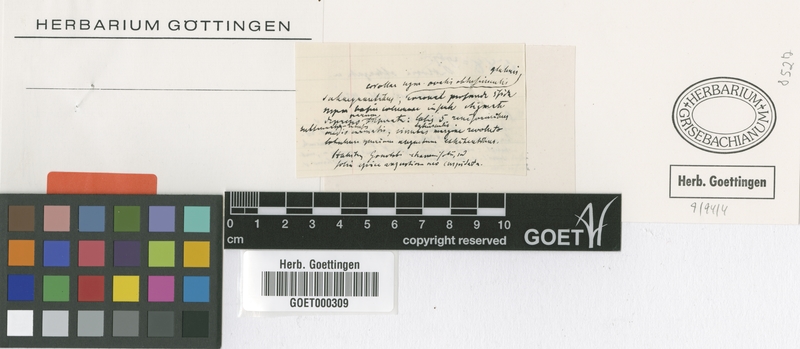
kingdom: Plantae
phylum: Tracheophyta
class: Magnoliopsida
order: Gentianales
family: Apocynaceae
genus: Poicillopsis
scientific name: Poicillopsis oblongata
